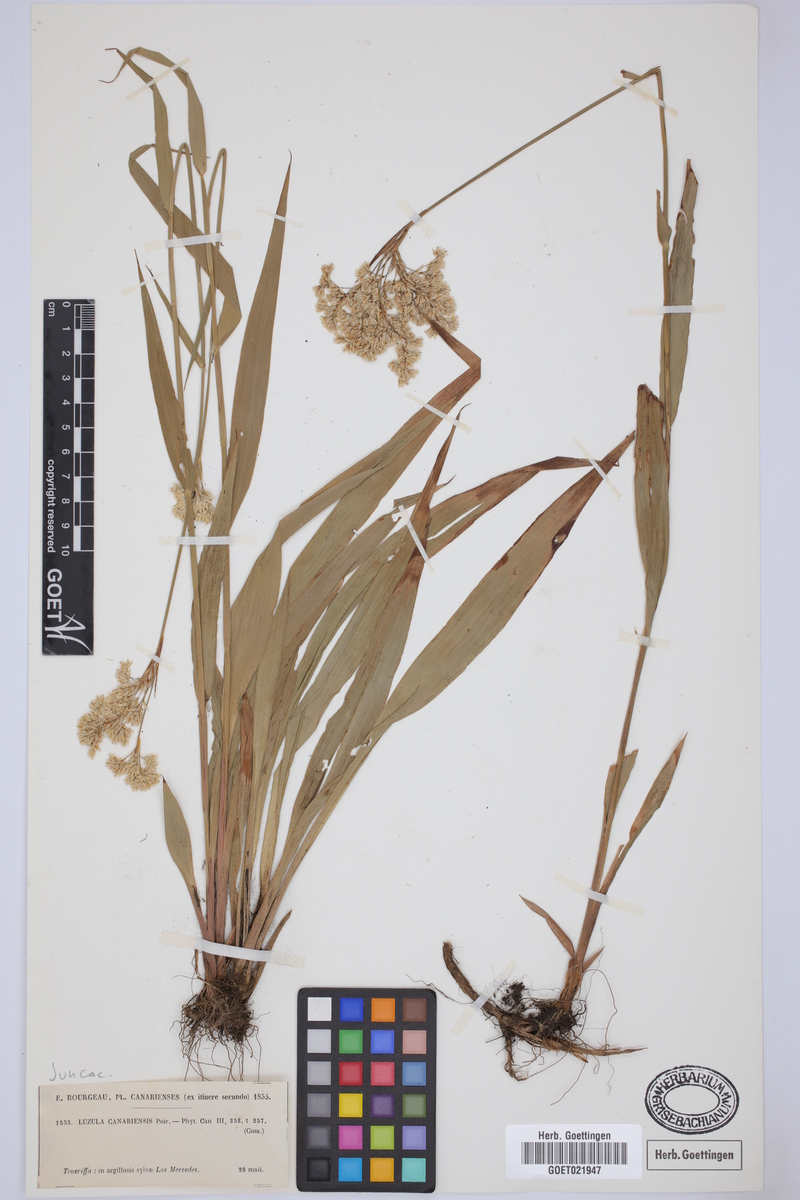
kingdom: Plantae
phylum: Tracheophyta
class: Liliopsida
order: Poales
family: Juncaceae
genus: Luzula
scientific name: Luzula canariensis
